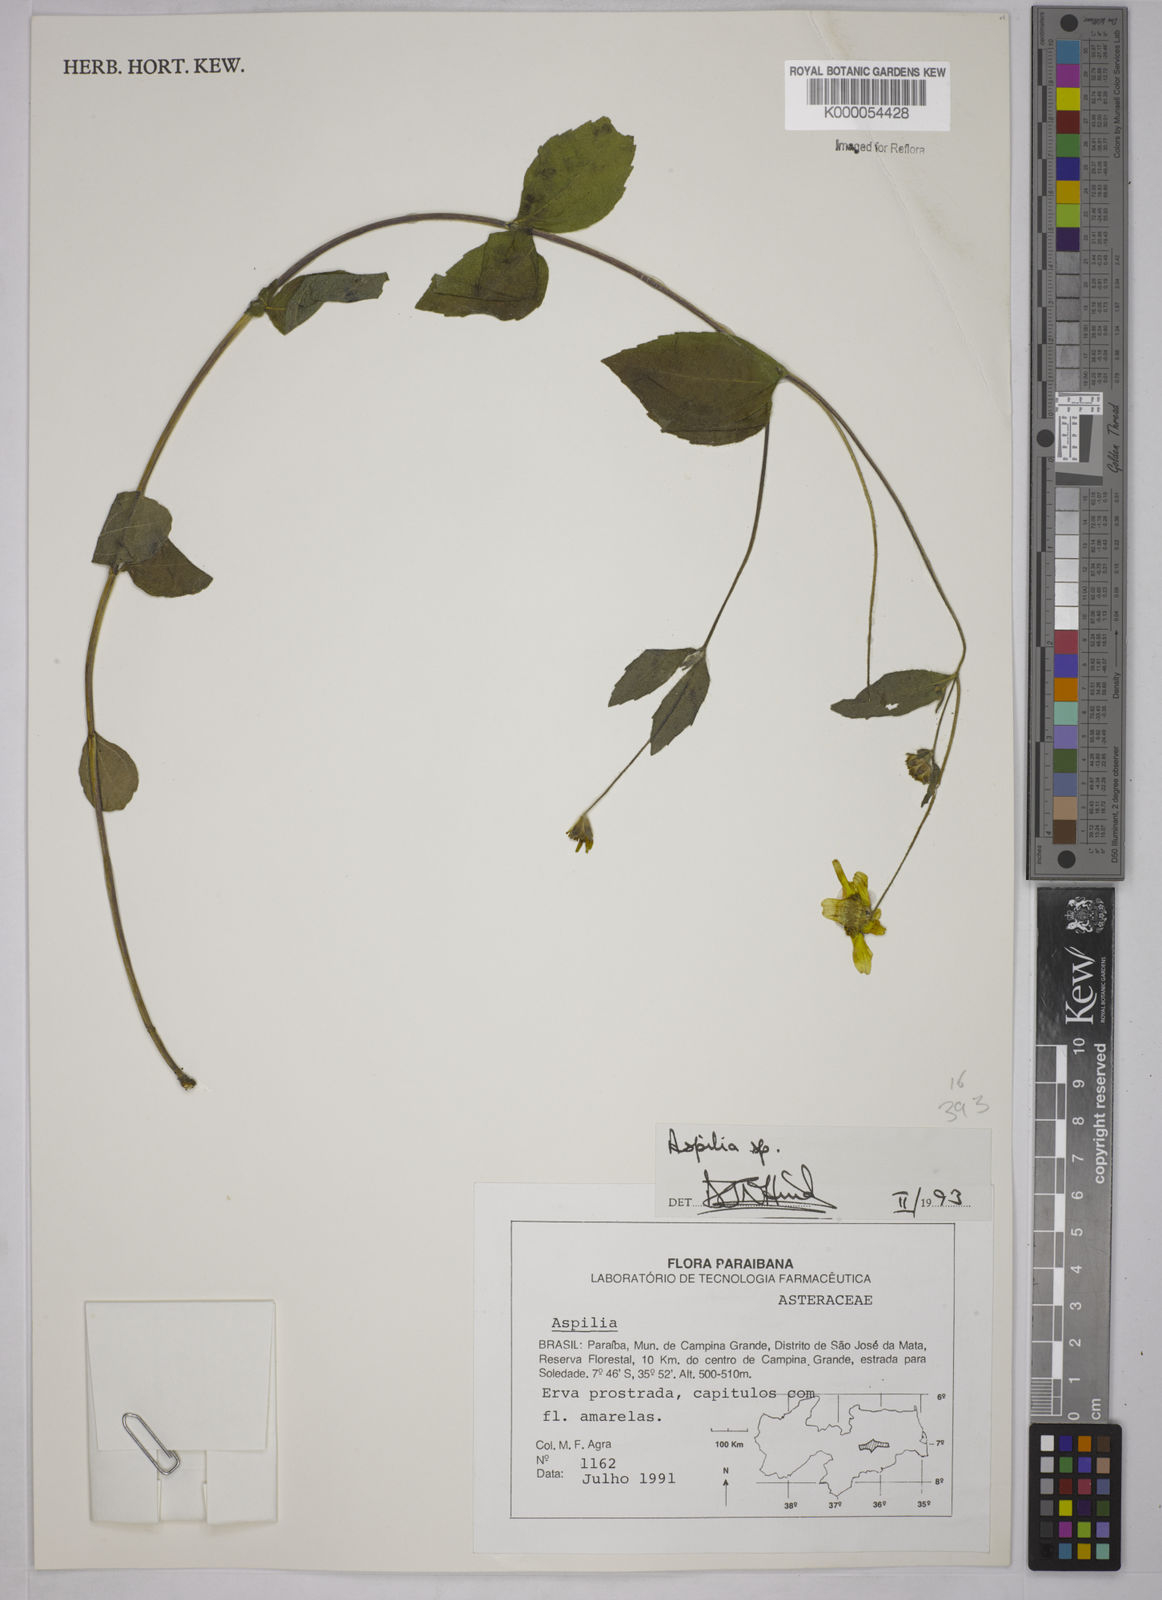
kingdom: Plantae
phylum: Tracheophyta
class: Magnoliopsida
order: Asterales
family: Asteraceae
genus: Aspilia
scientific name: Aspilia
